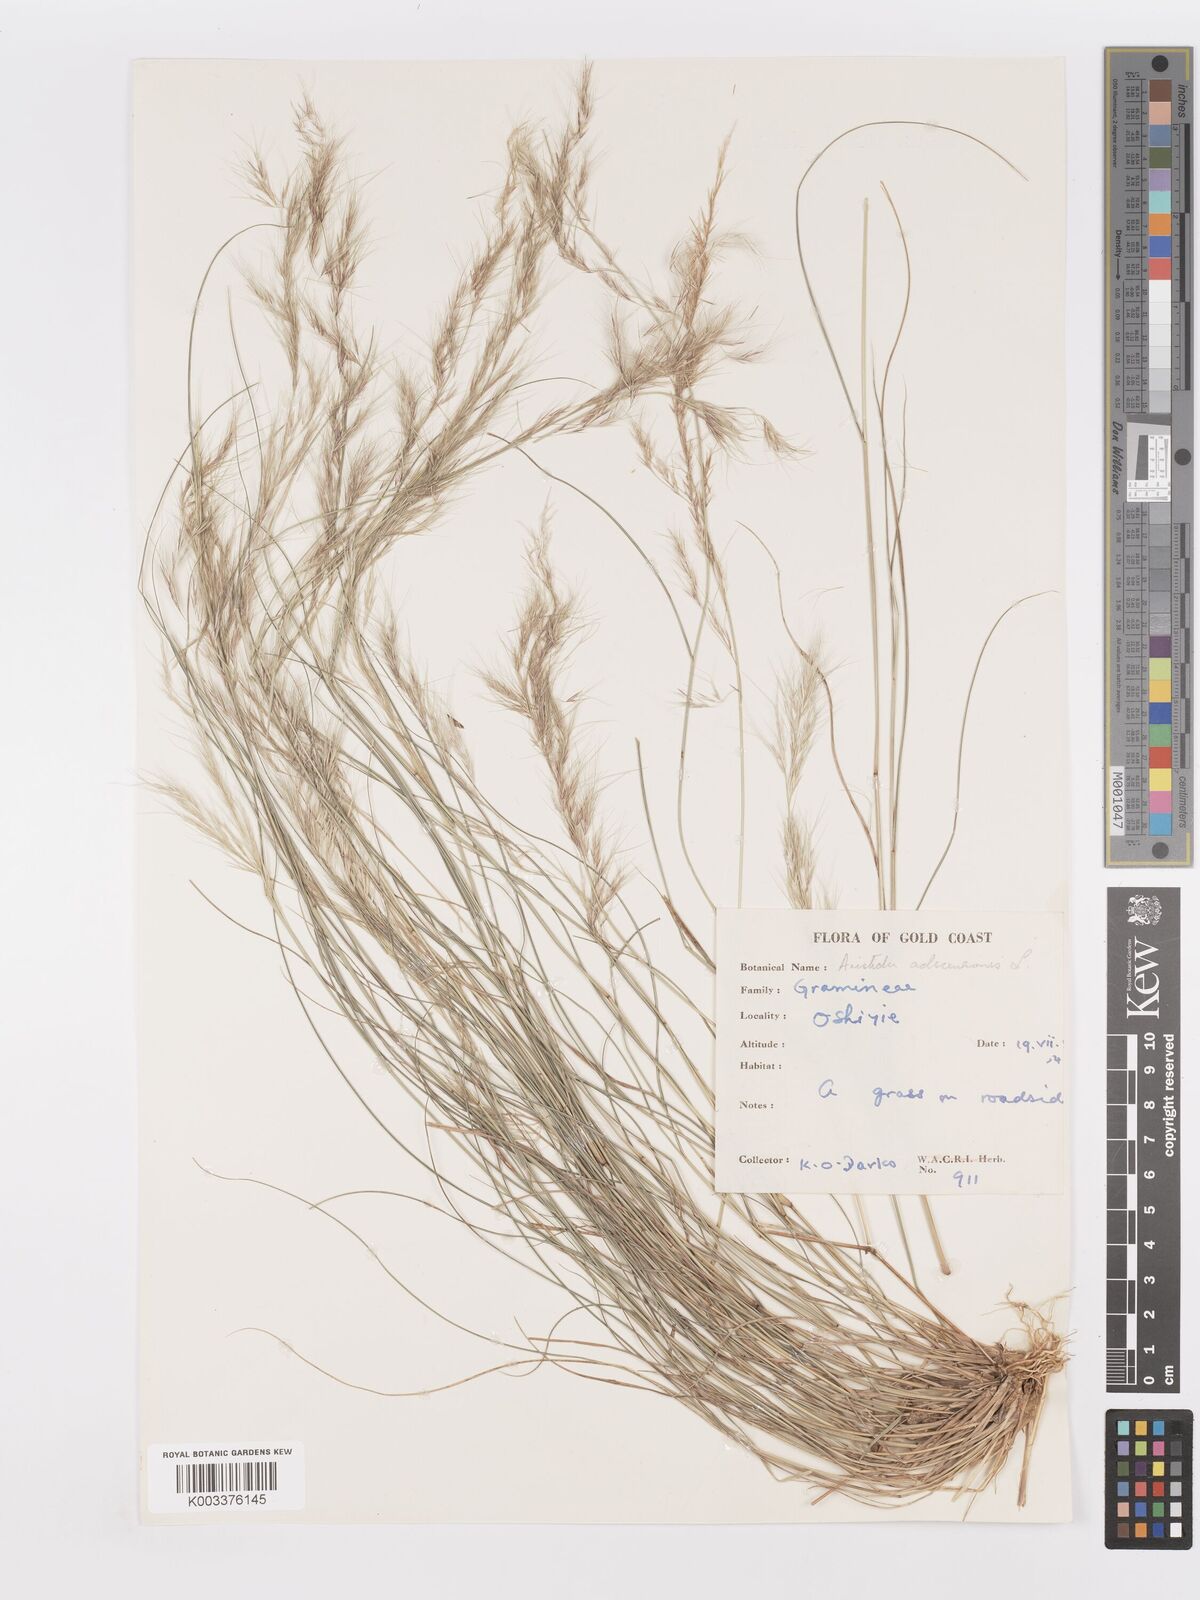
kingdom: Plantae
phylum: Tracheophyta
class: Liliopsida
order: Poales
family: Poaceae
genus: Aristida
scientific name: Aristida adscensionis
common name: Sixweeks threeawn
